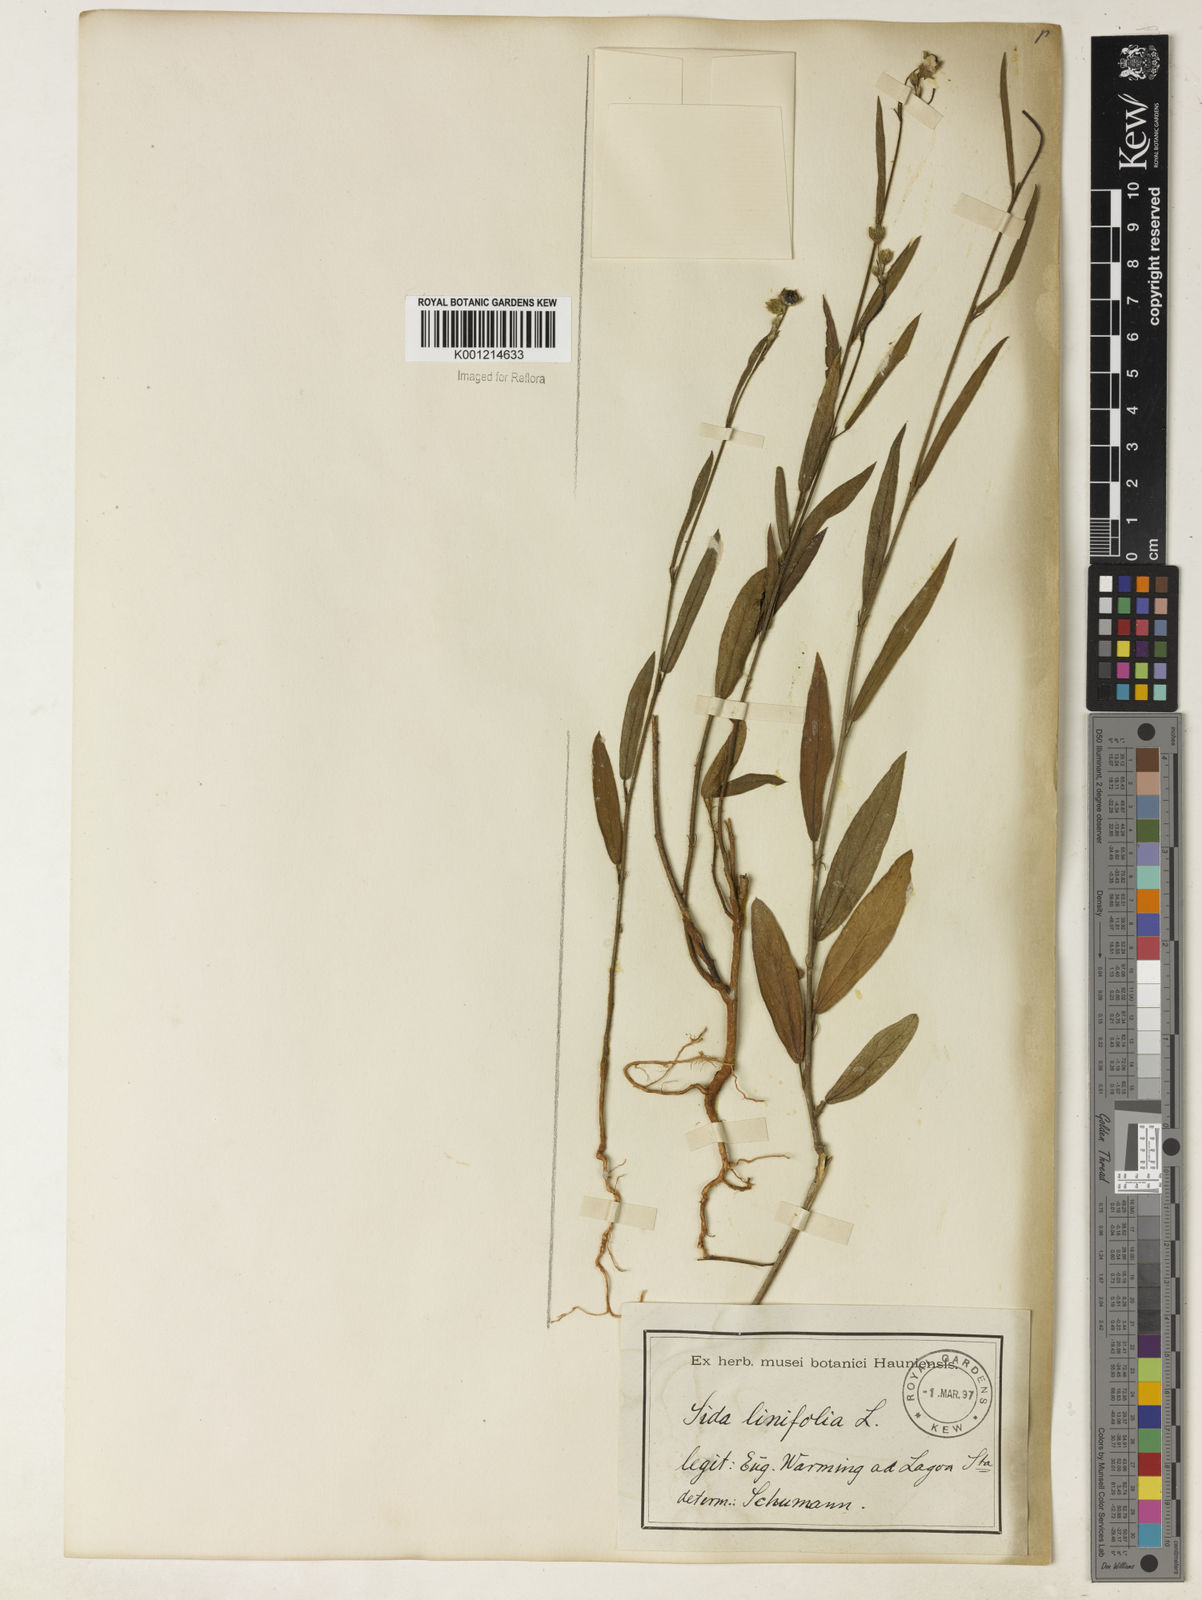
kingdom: Plantae
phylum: Tracheophyta
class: Magnoliopsida
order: Malvales
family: Malvaceae
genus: Sida
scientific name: Sida linifolia
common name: Flaxleaf fanpetals
